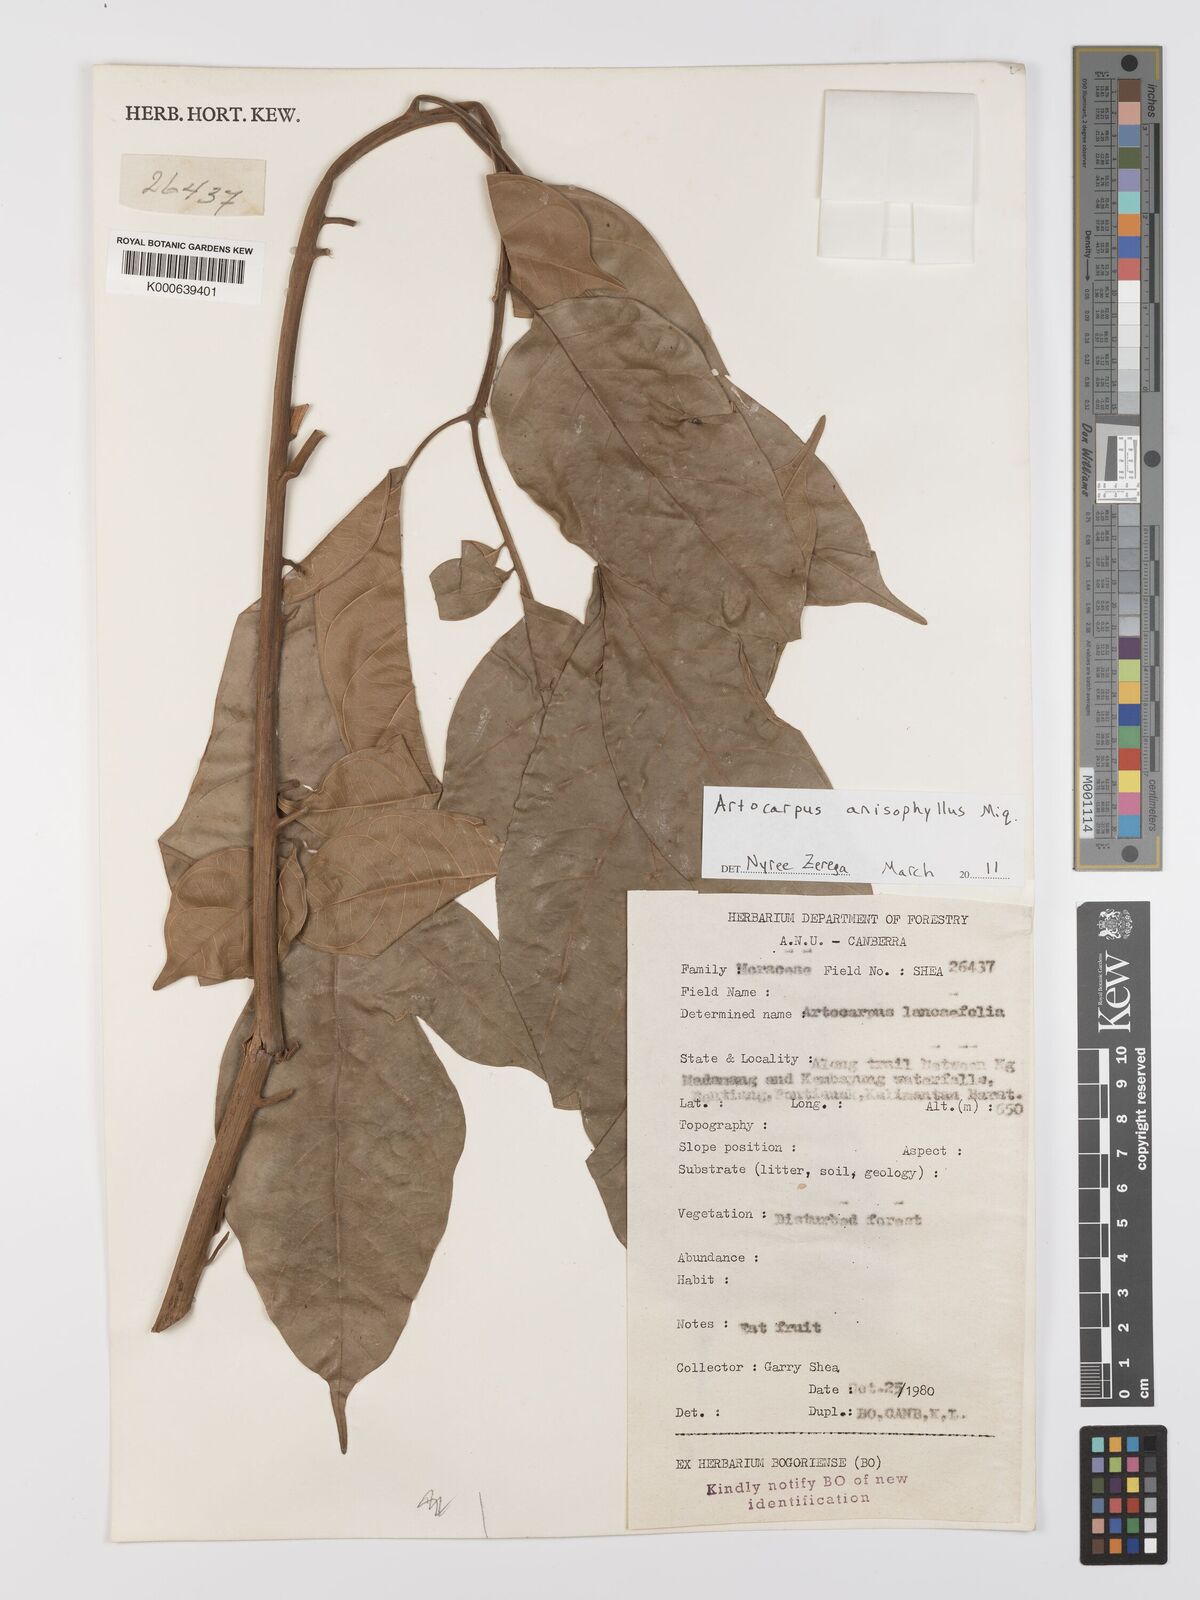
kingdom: Plantae
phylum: Tracheophyta
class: Magnoliopsida
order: Rosales
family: Moraceae
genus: Artocarpus
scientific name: Artocarpus anisophyllus
